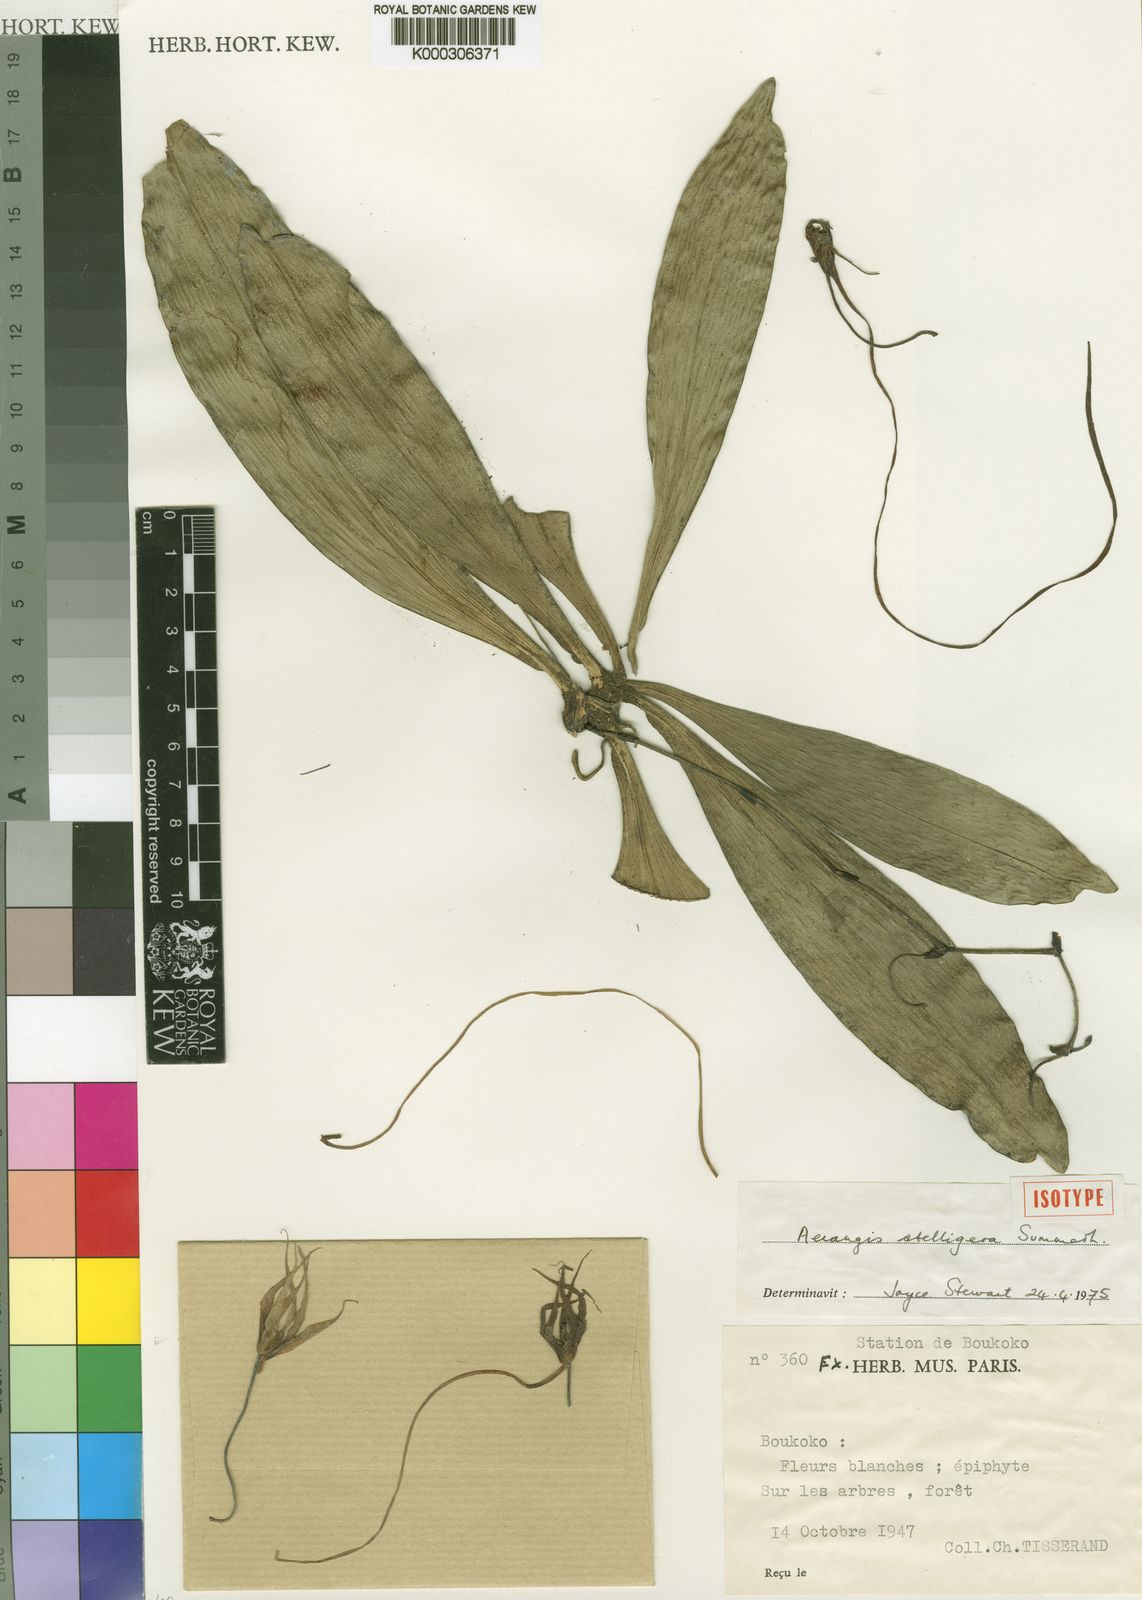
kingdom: Plantae
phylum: Tracheophyta
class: Liliopsida
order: Asparagales
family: Orchidaceae
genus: Aerangis
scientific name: Aerangis stelligera
